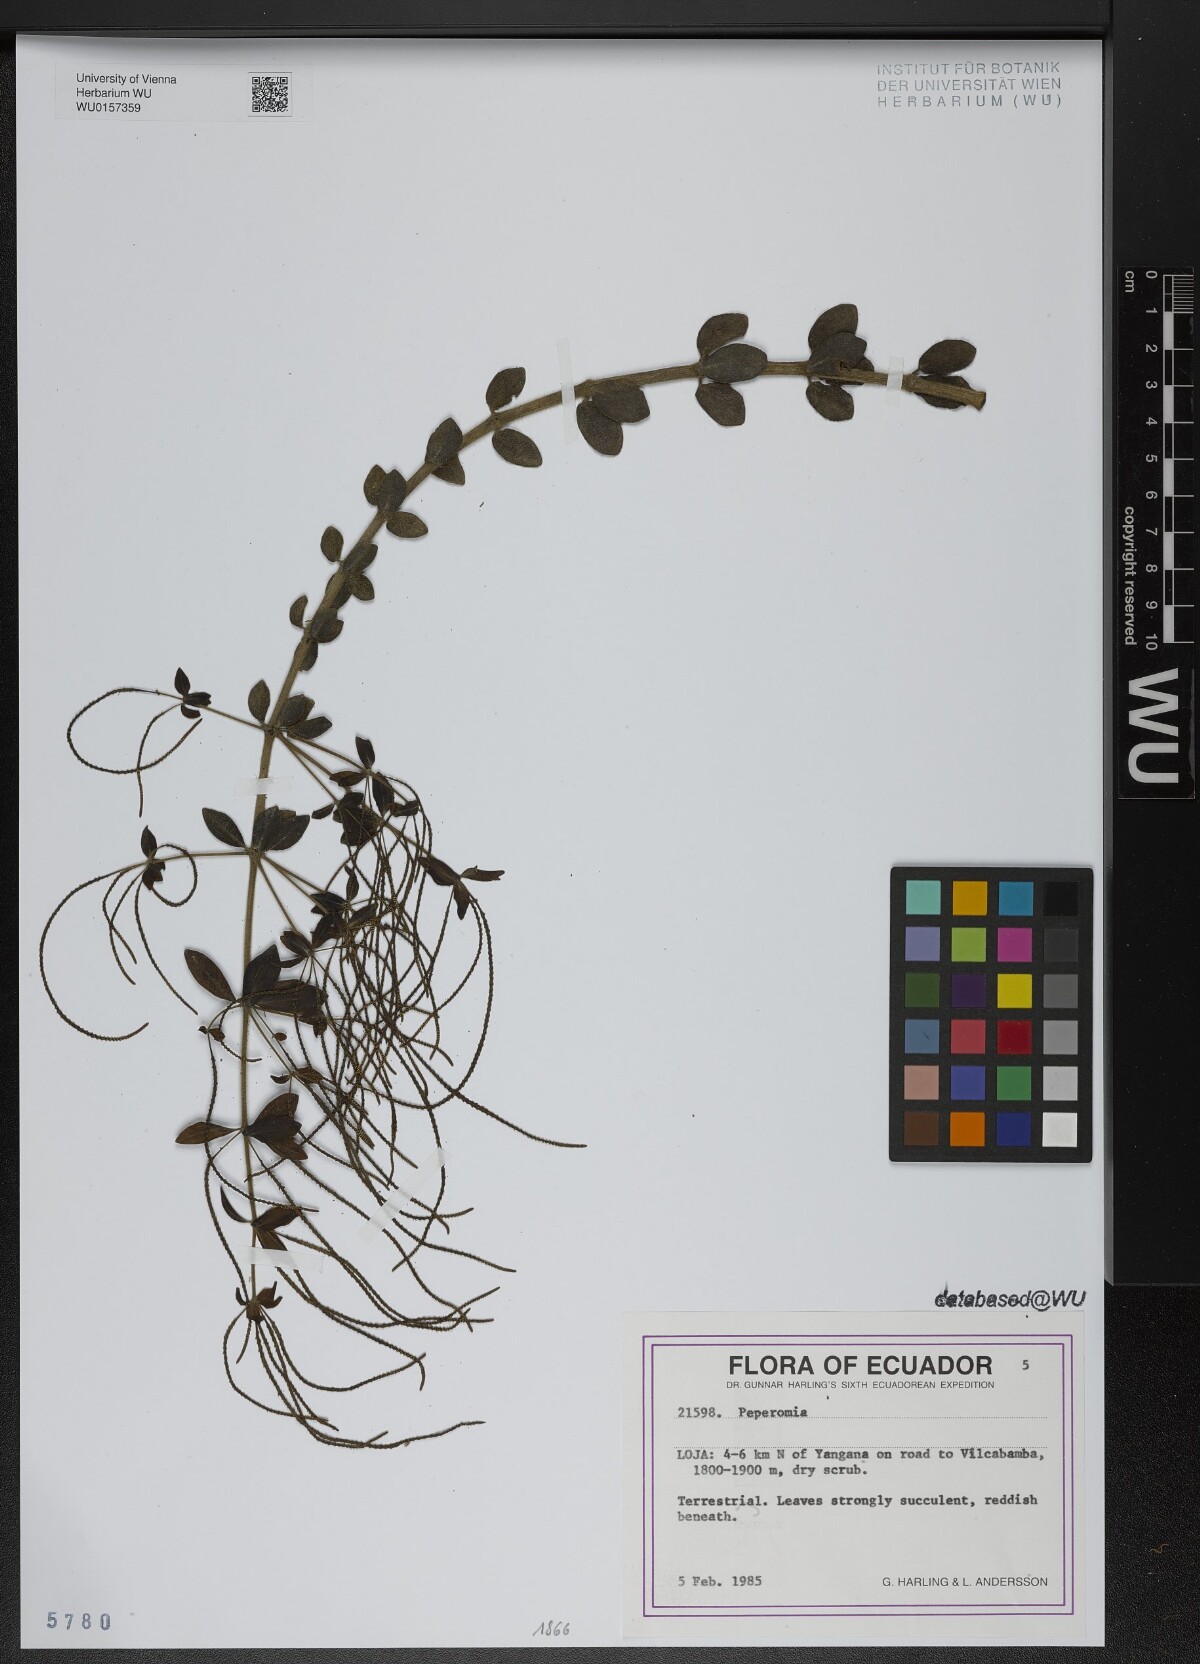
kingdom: Plantae
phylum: Tracheophyta
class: Magnoliopsida
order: Piperales
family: Piperaceae
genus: Peperomia
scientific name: Peperomia
